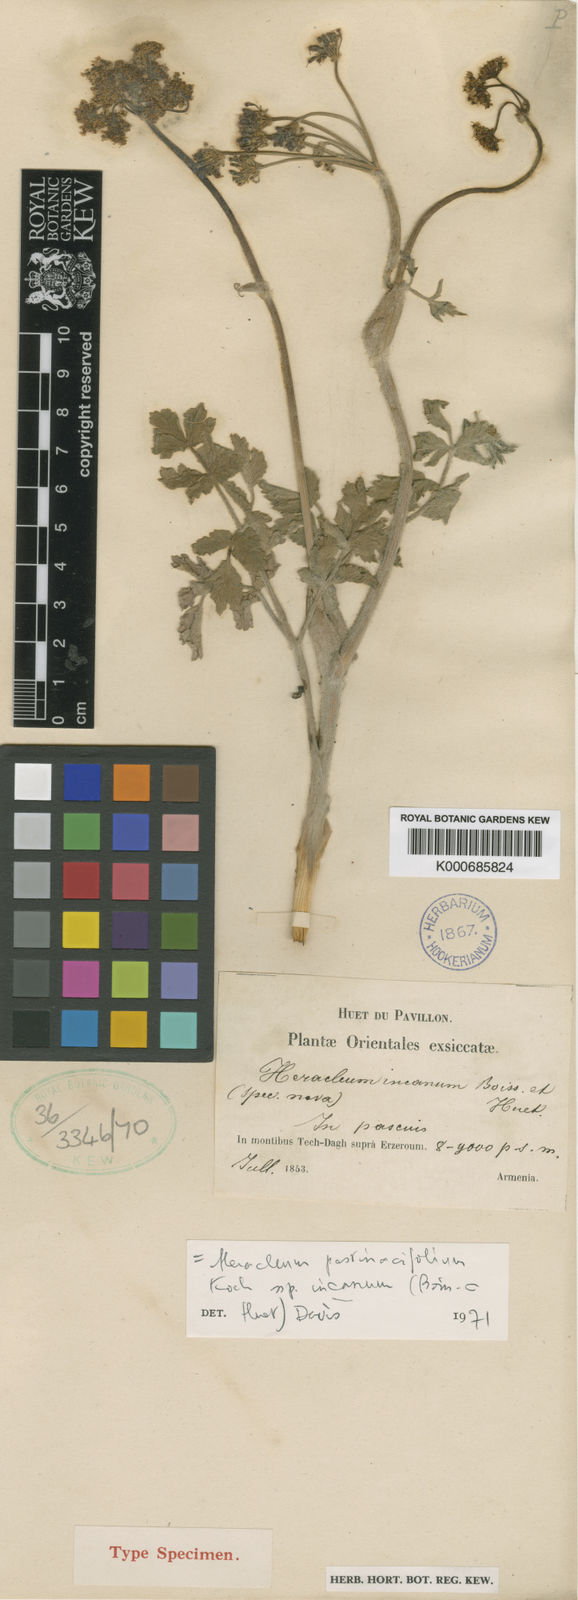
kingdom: Plantae
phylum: Tracheophyta
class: Magnoliopsida
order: Apiales
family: Apiaceae
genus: Heracleum
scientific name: Heracleum chorodanum
